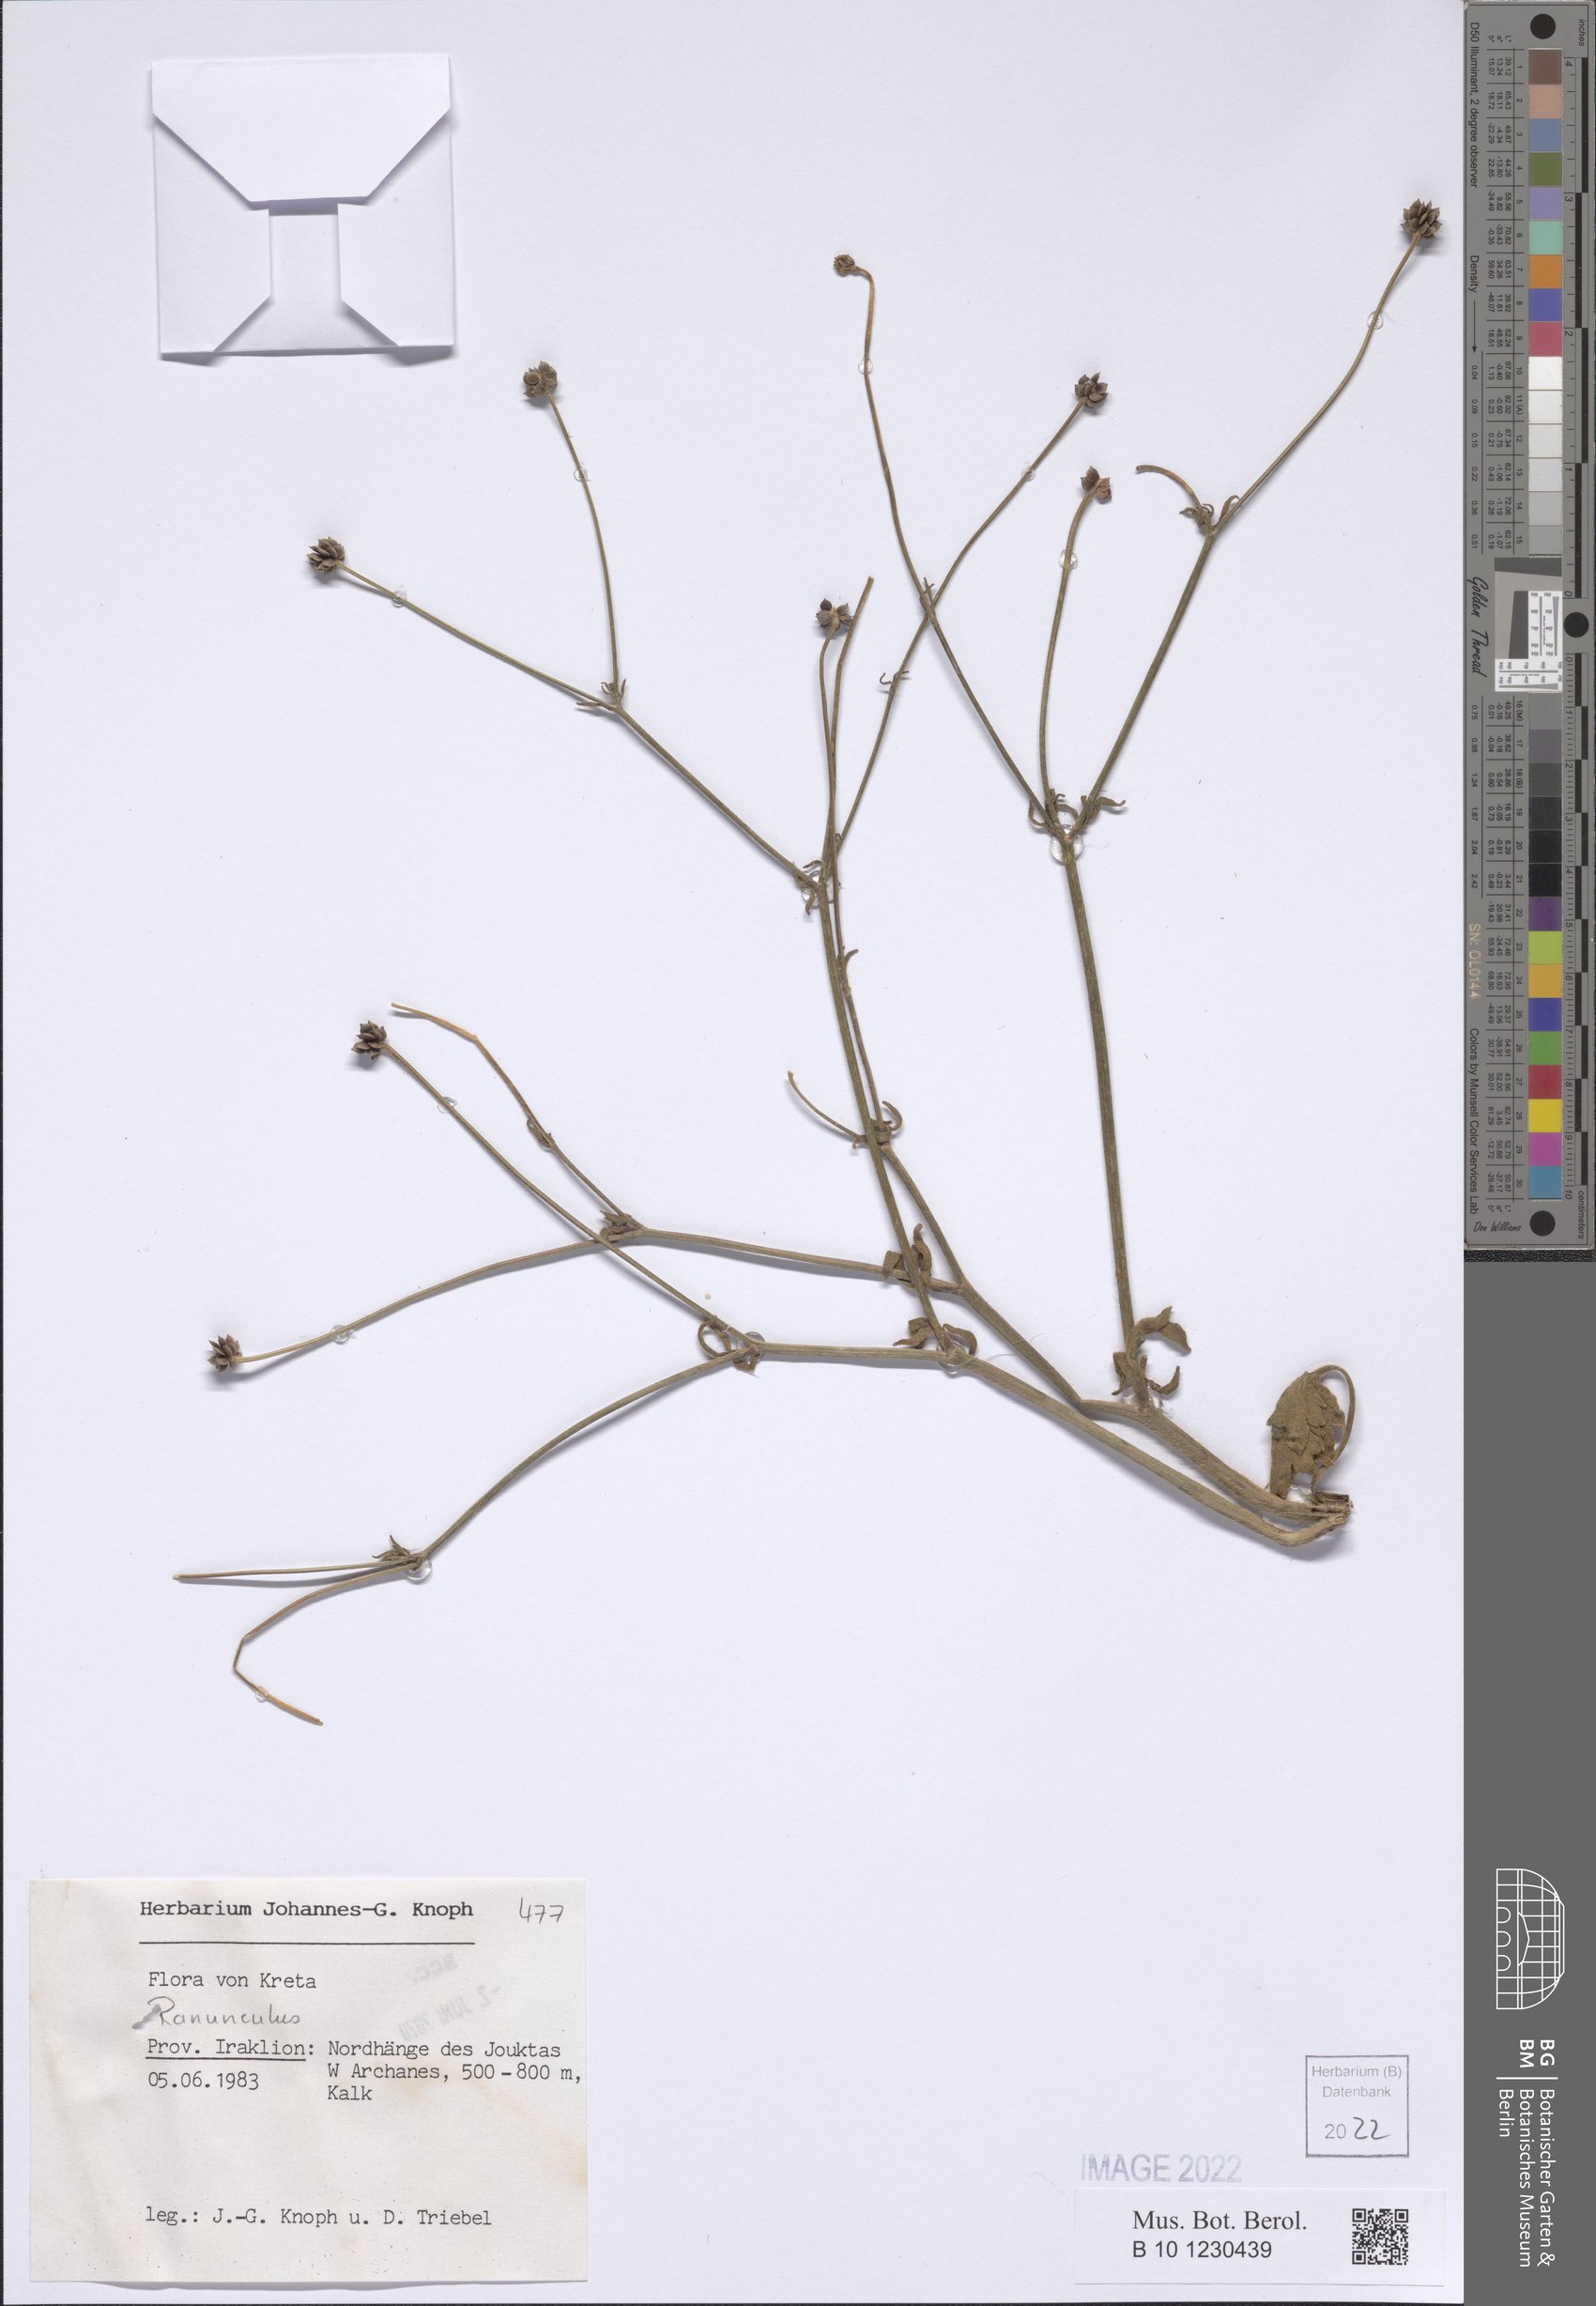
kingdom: Plantae
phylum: Tracheophyta
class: Magnoliopsida
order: Ranunculales
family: Ranunculaceae
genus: Ranunculus
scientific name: Ranunculus
